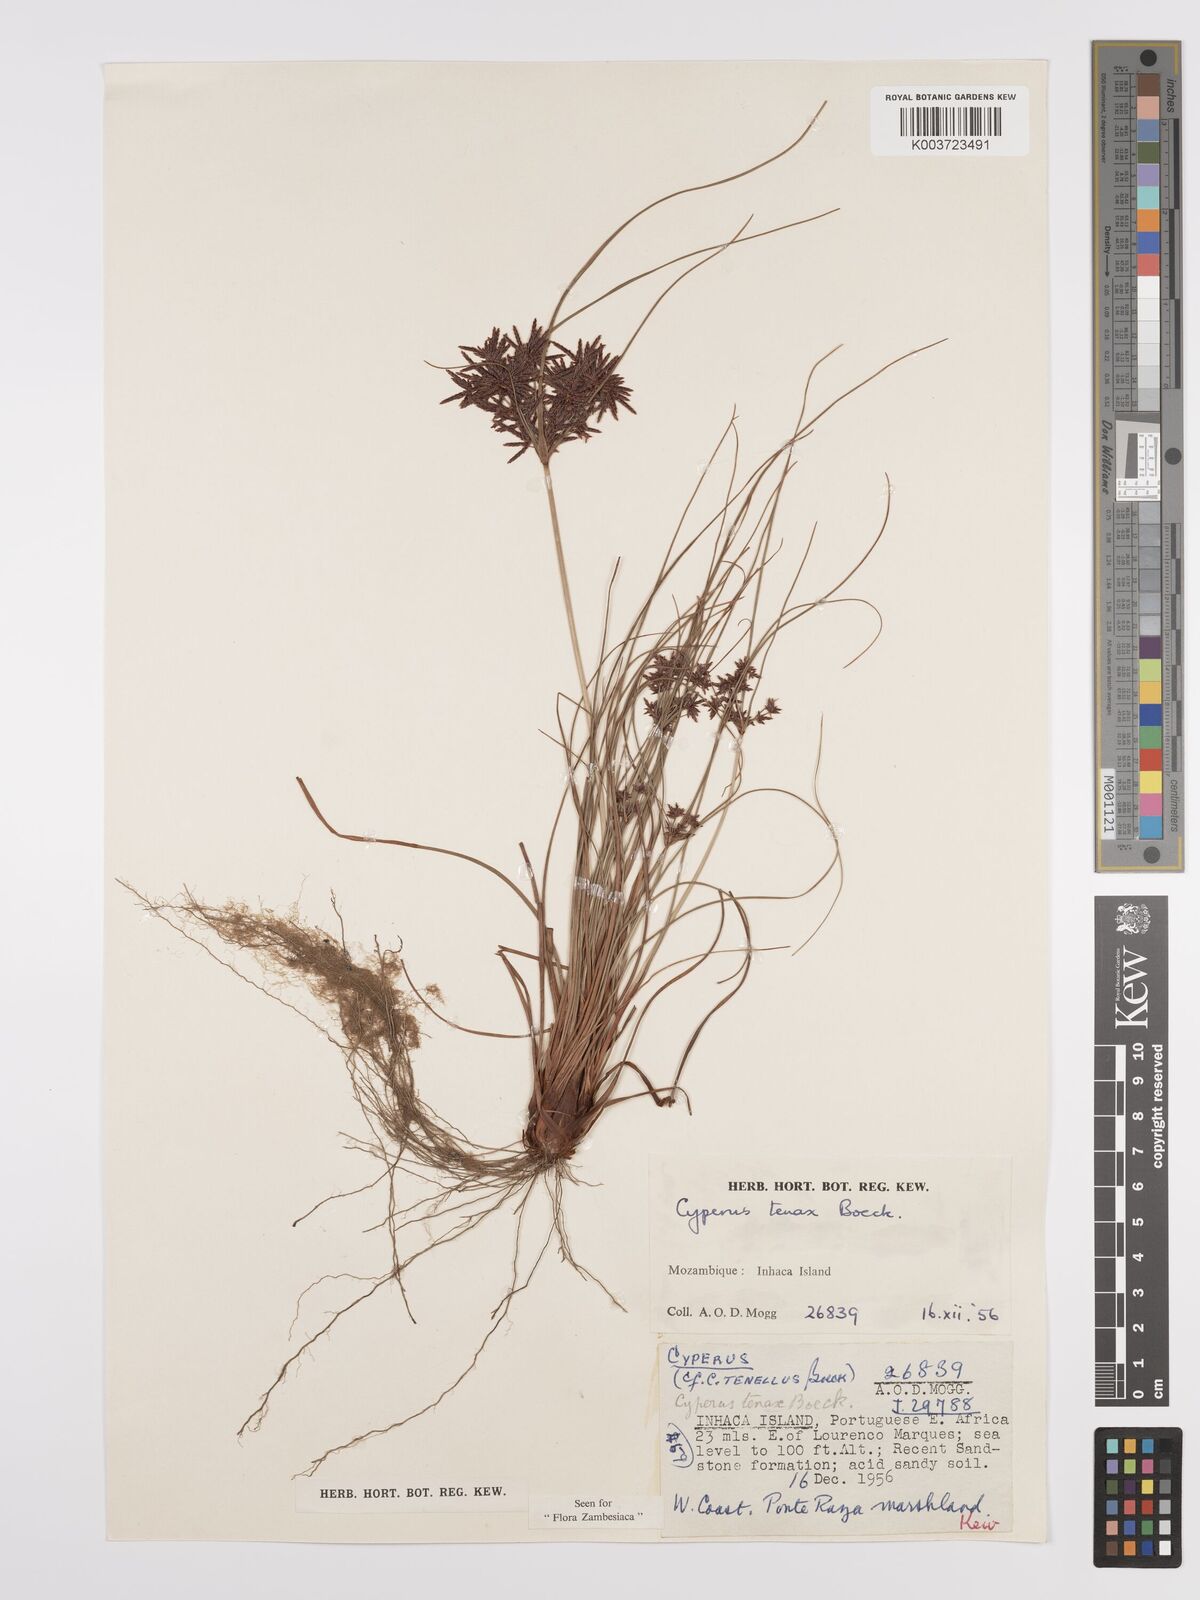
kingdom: Plantae
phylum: Tracheophyta
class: Liliopsida
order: Poales
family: Cyperaceae
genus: Cyperus
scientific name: Cyperus tenax
